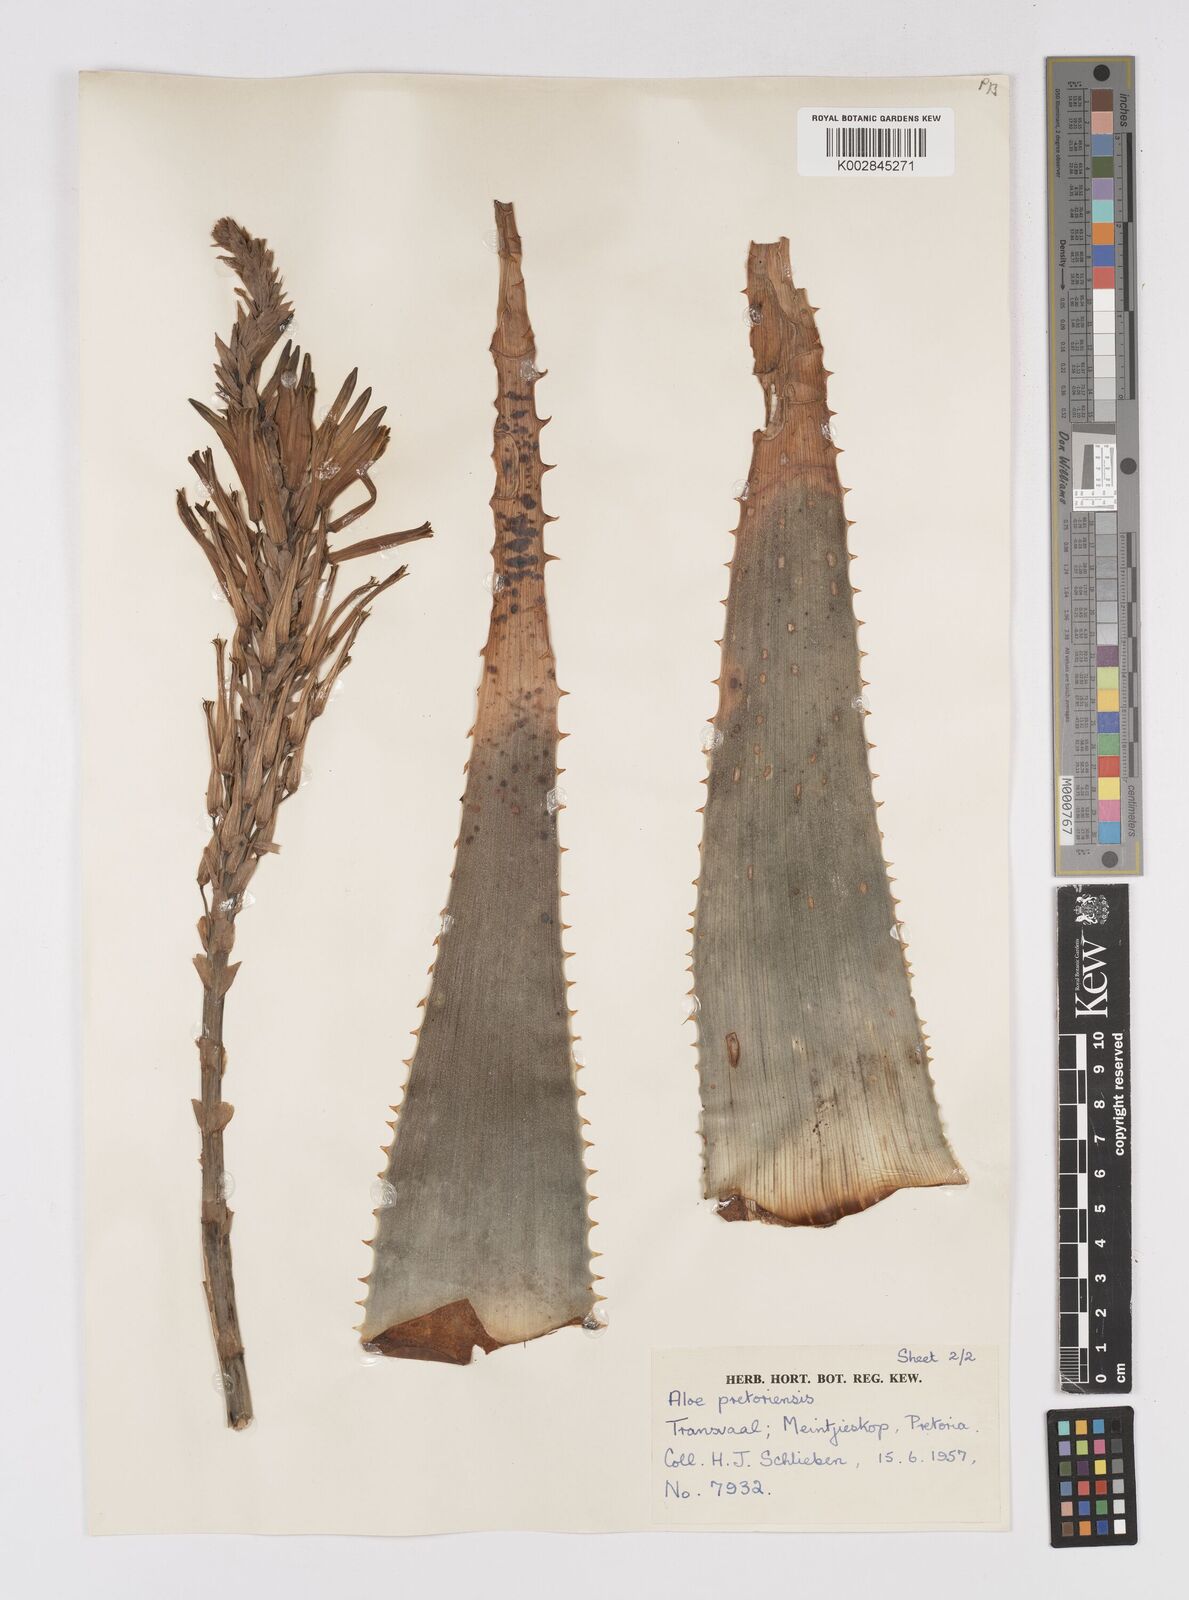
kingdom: Plantae
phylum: Tracheophyta
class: Liliopsida
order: Asparagales
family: Asphodelaceae
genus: Aloe
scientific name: Aloe pretoriensis
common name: Pretoria aloe
